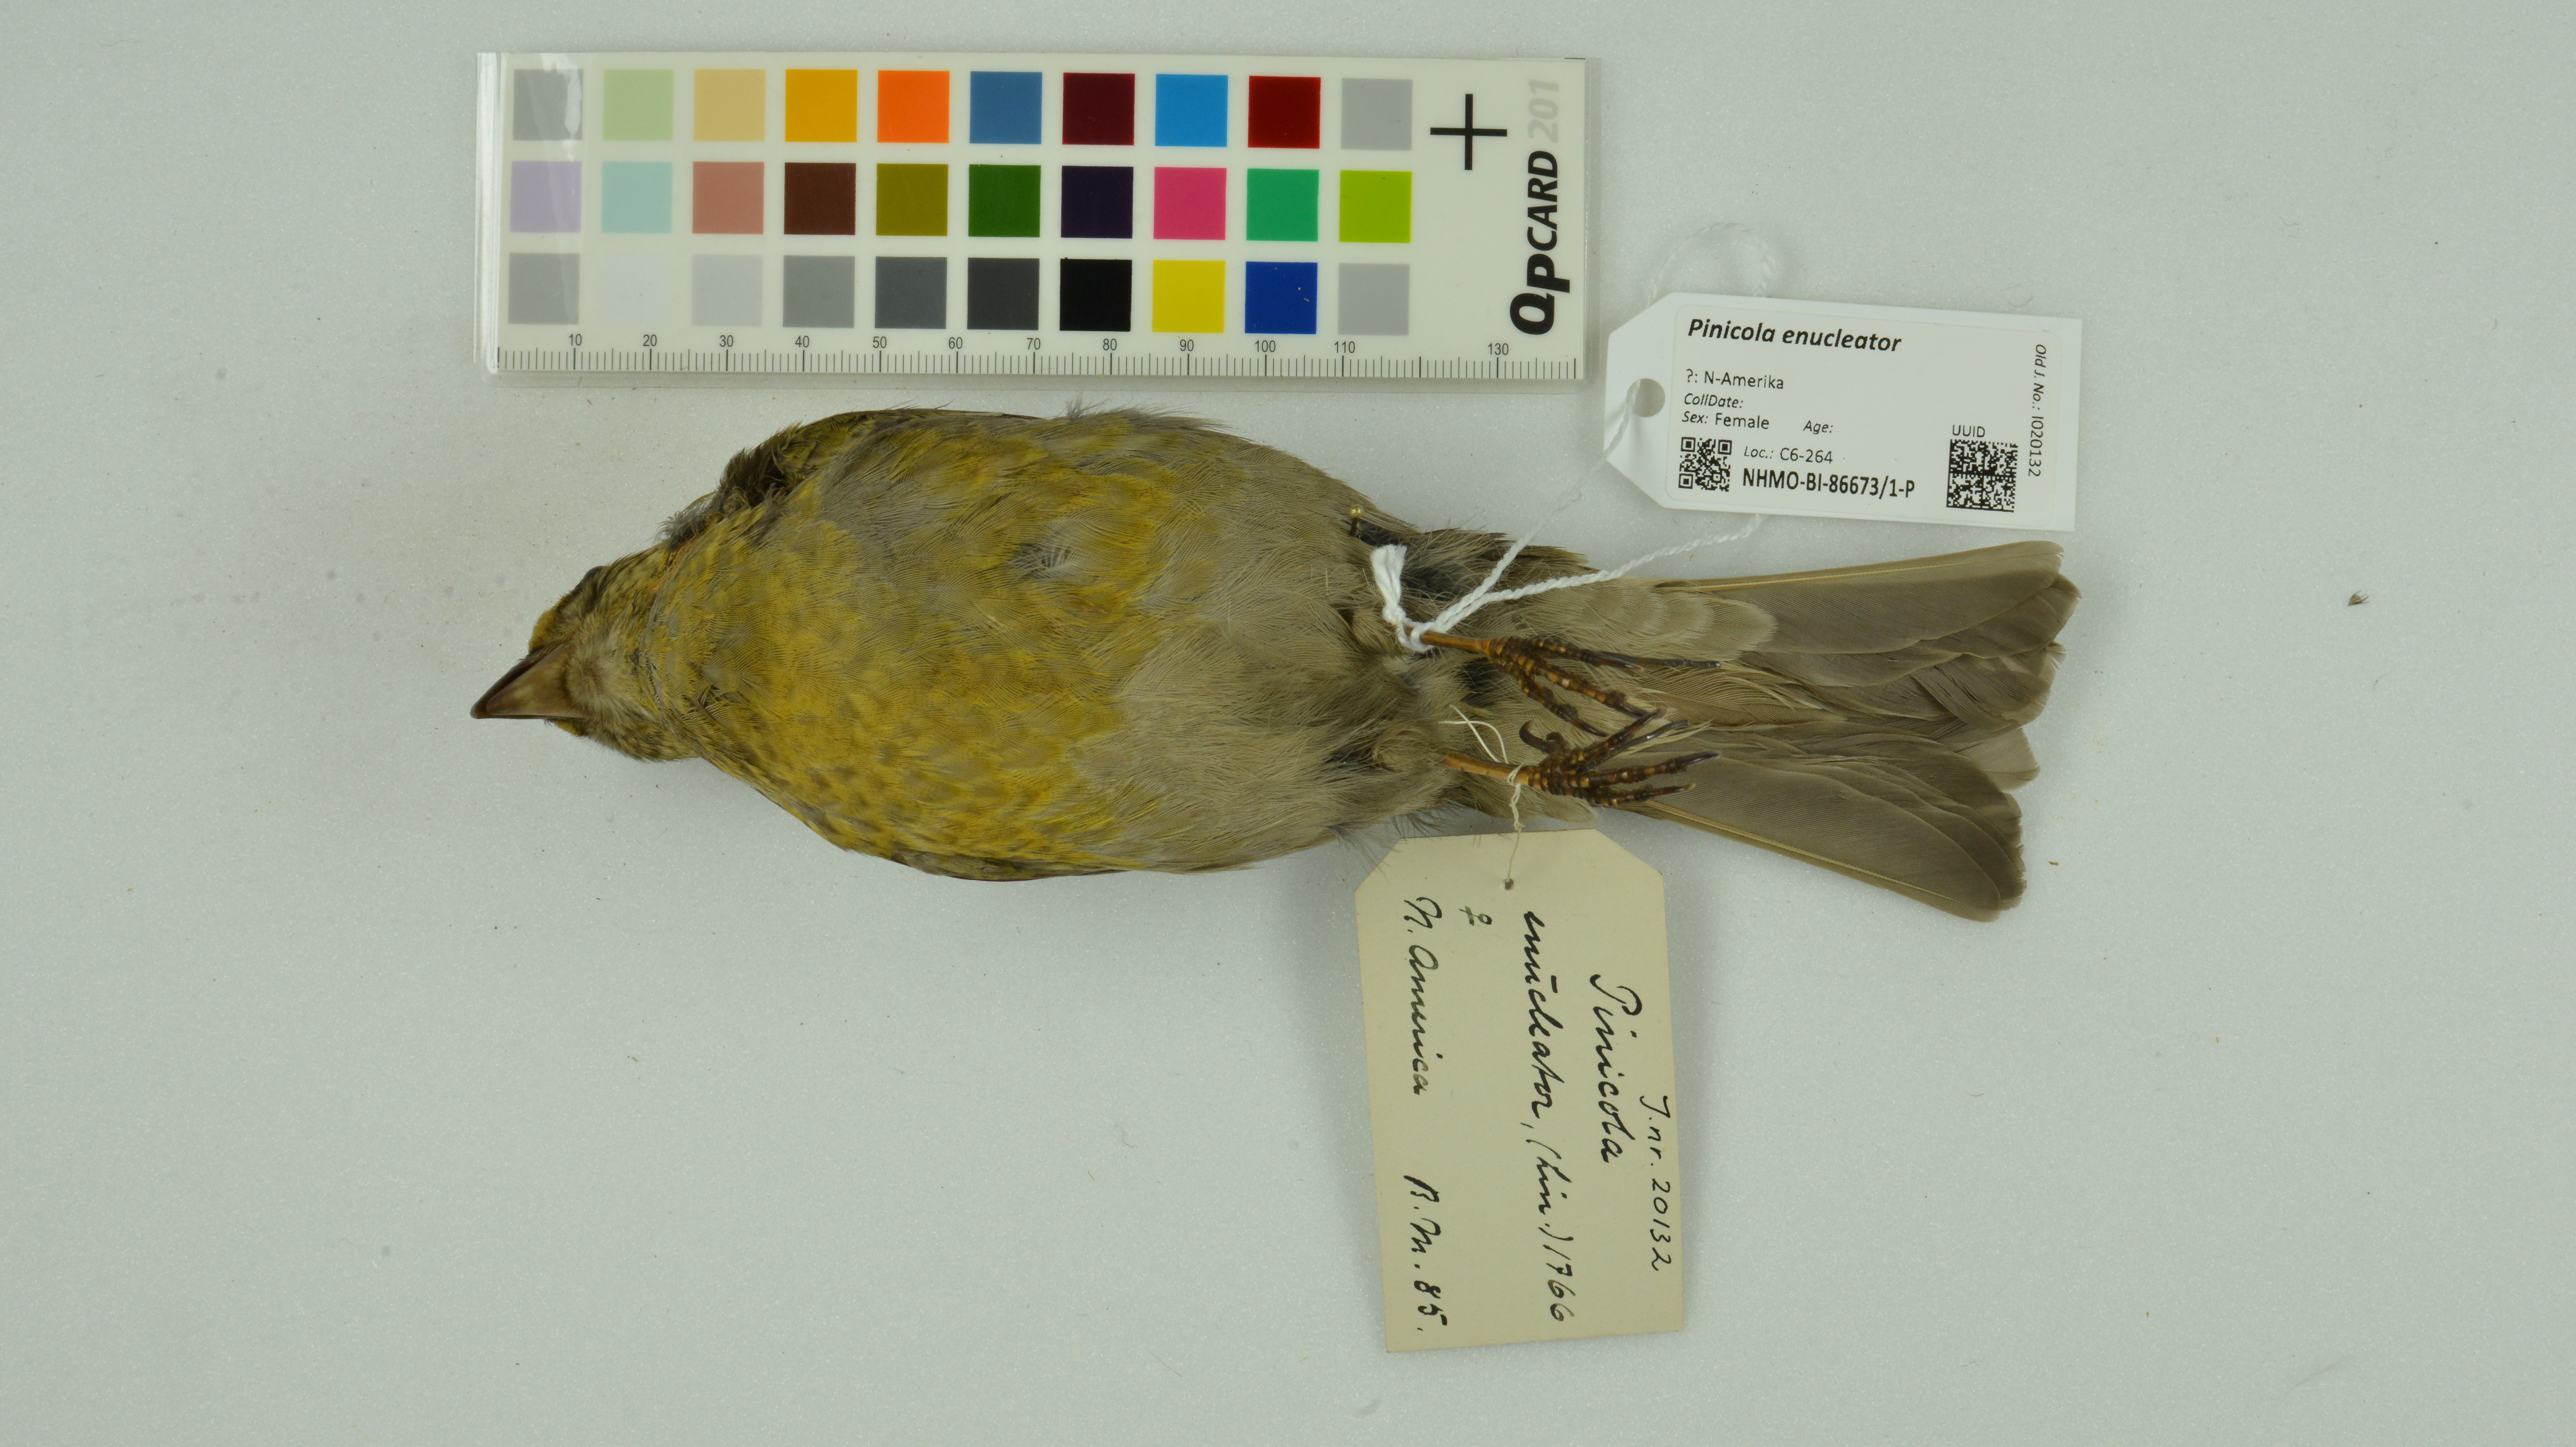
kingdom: Animalia
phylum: Chordata
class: Aves
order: Passeriformes
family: Fringillidae
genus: Pinicola
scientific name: Pinicola enucleator
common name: Pine grosbeak
